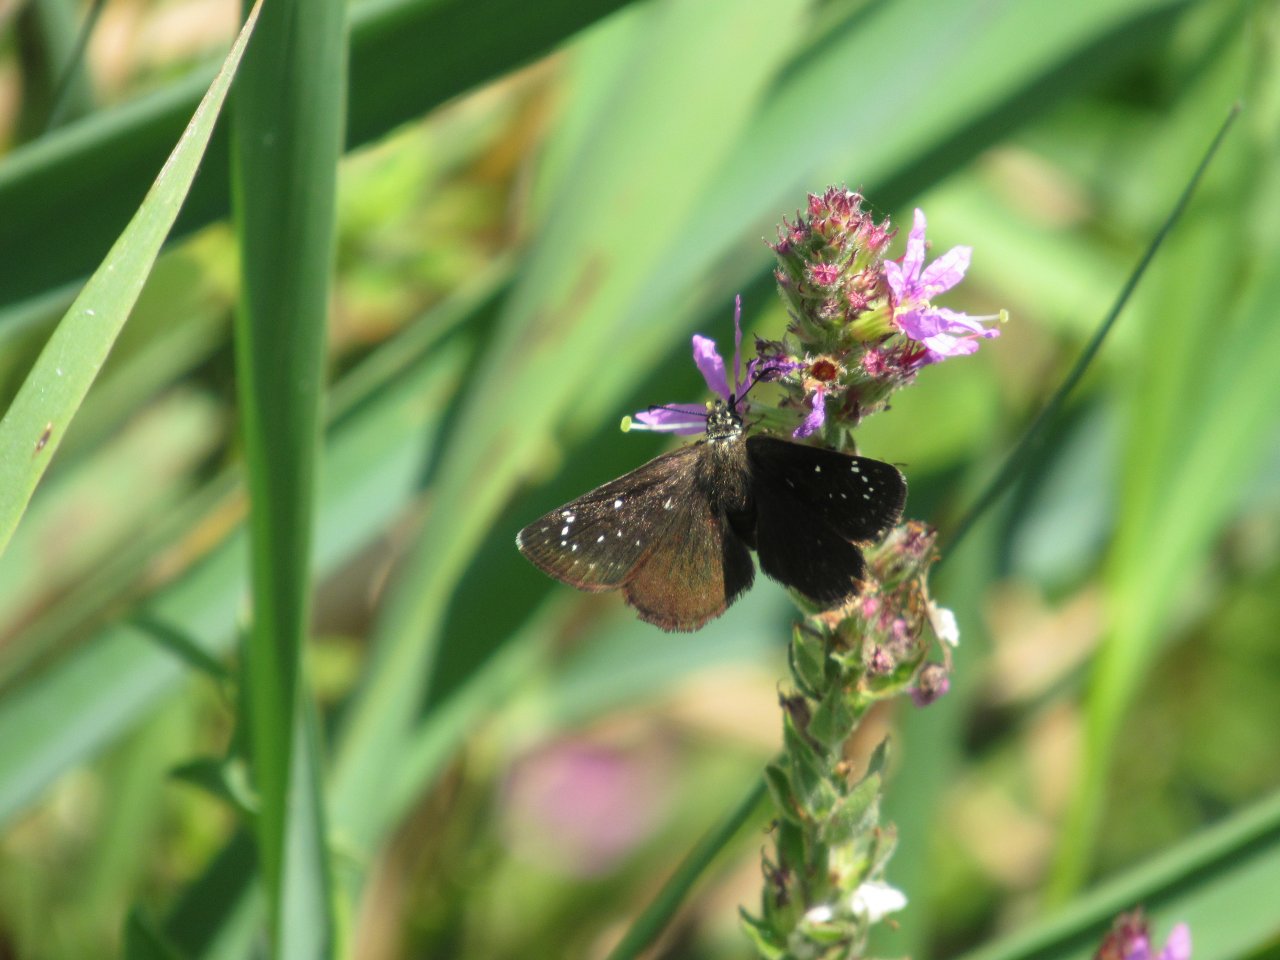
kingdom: Animalia
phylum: Arthropoda
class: Insecta
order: Lepidoptera
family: Hesperiidae
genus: Pholisora
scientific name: Pholisora catullus
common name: Common Sootywing
